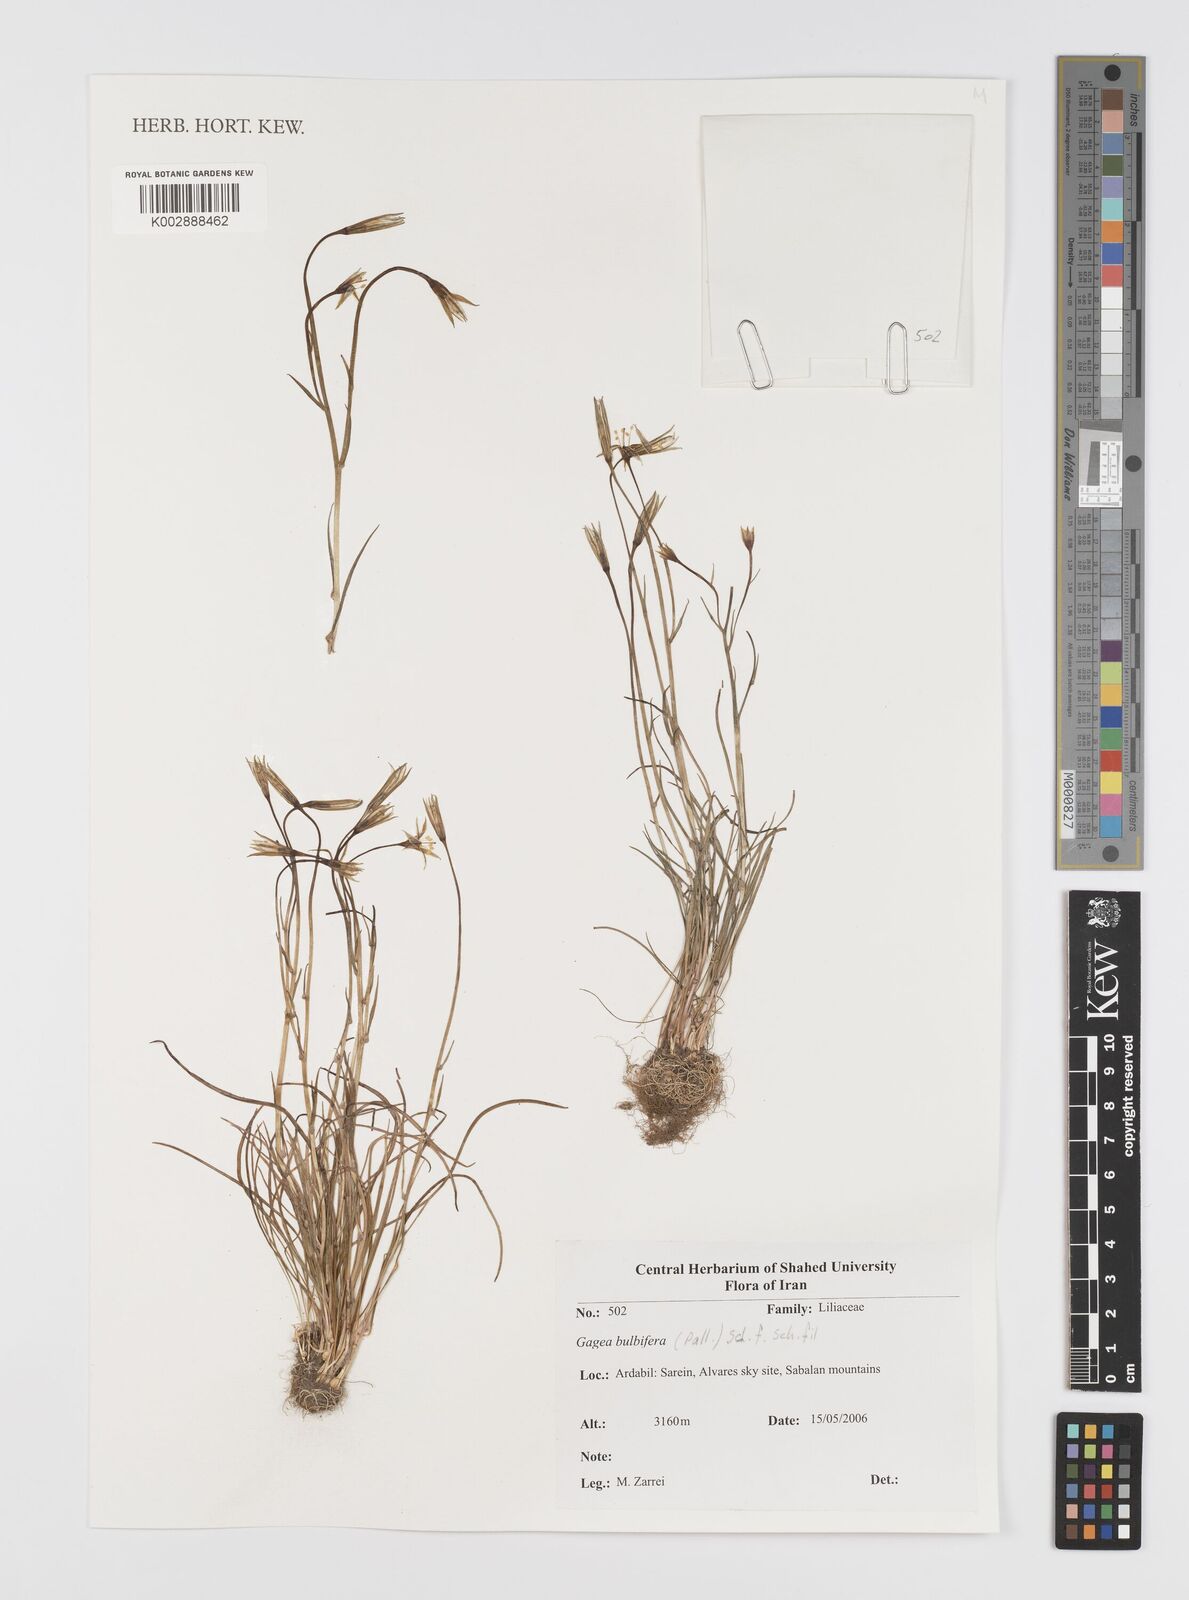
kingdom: Plantae
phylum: Tracheophyta
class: Liliopsida
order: Liliales
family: Liliaceae
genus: Gagea
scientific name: Gagea bulbifera
